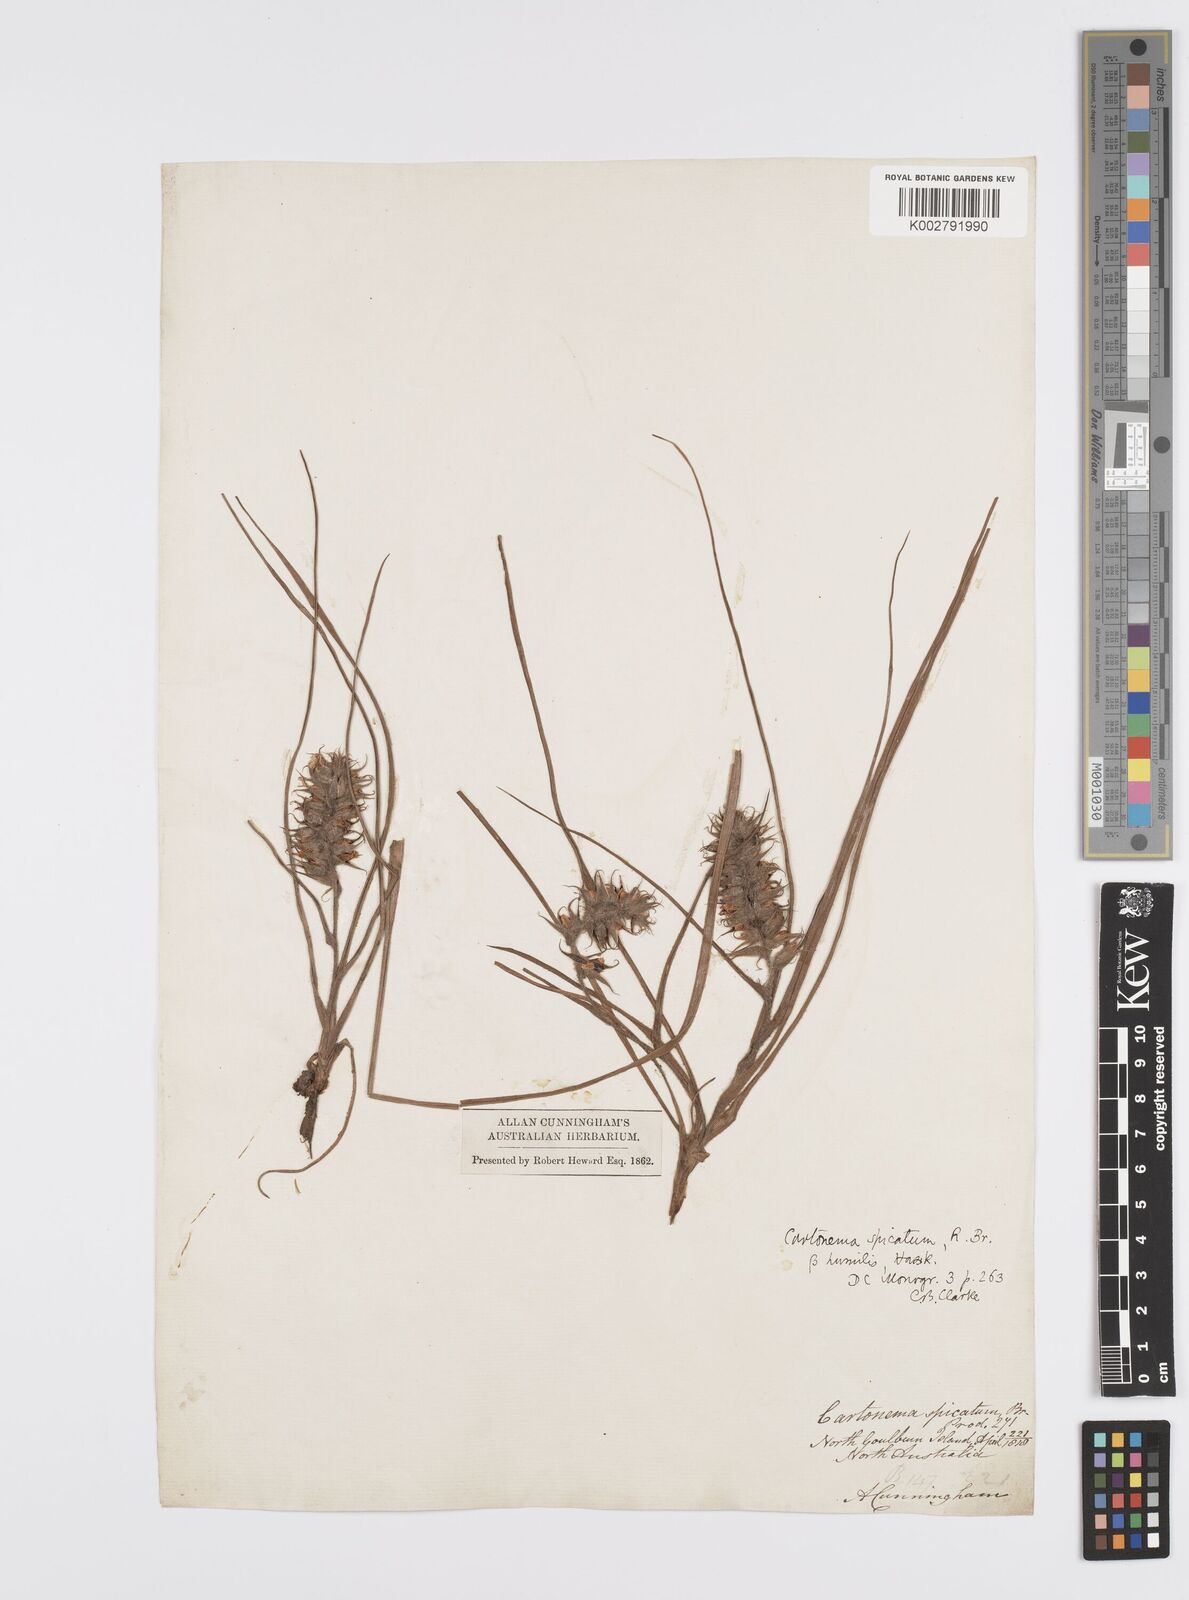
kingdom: Plantae
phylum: Tracheophyta
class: Liliopsida
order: Commelinales
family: Commelinaceae
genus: Cartonema
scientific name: Cartonema spicatum
